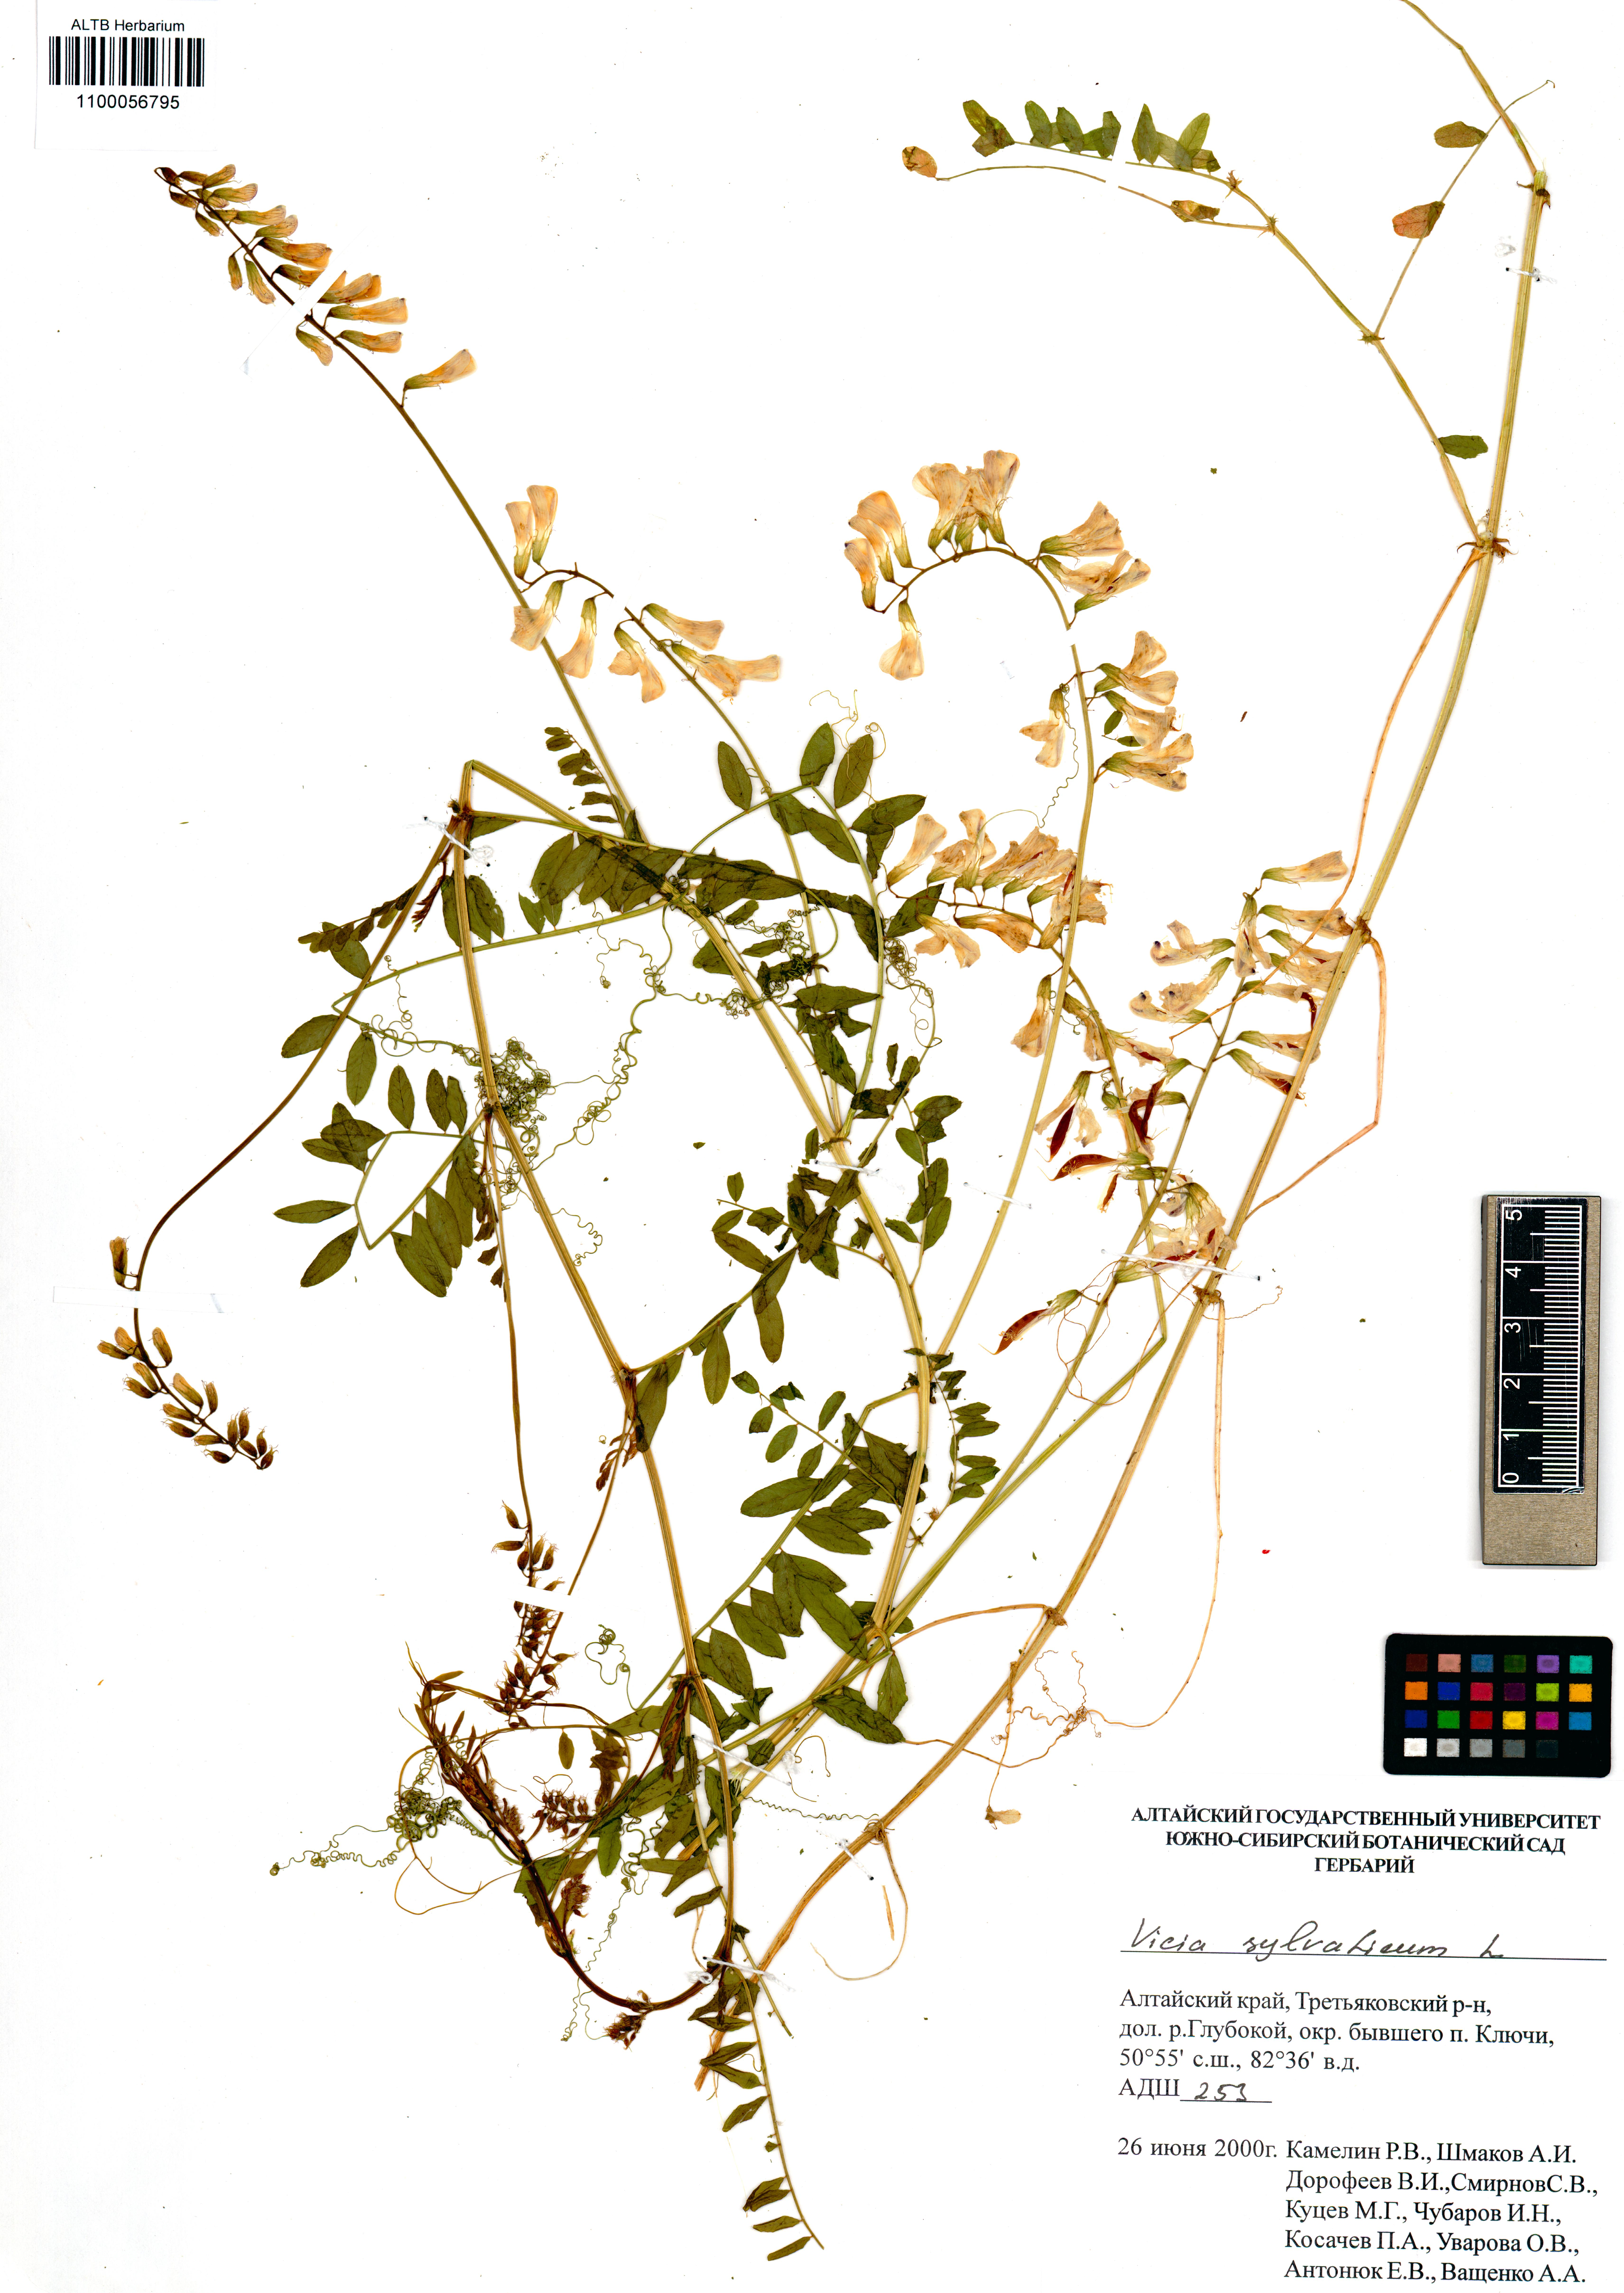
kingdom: Plantae
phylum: Tracheophyta
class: Magnoliopsida
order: Fabales
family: Fabaceae
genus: Vicia
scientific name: Vicia sylvatica
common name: Wood vetch
